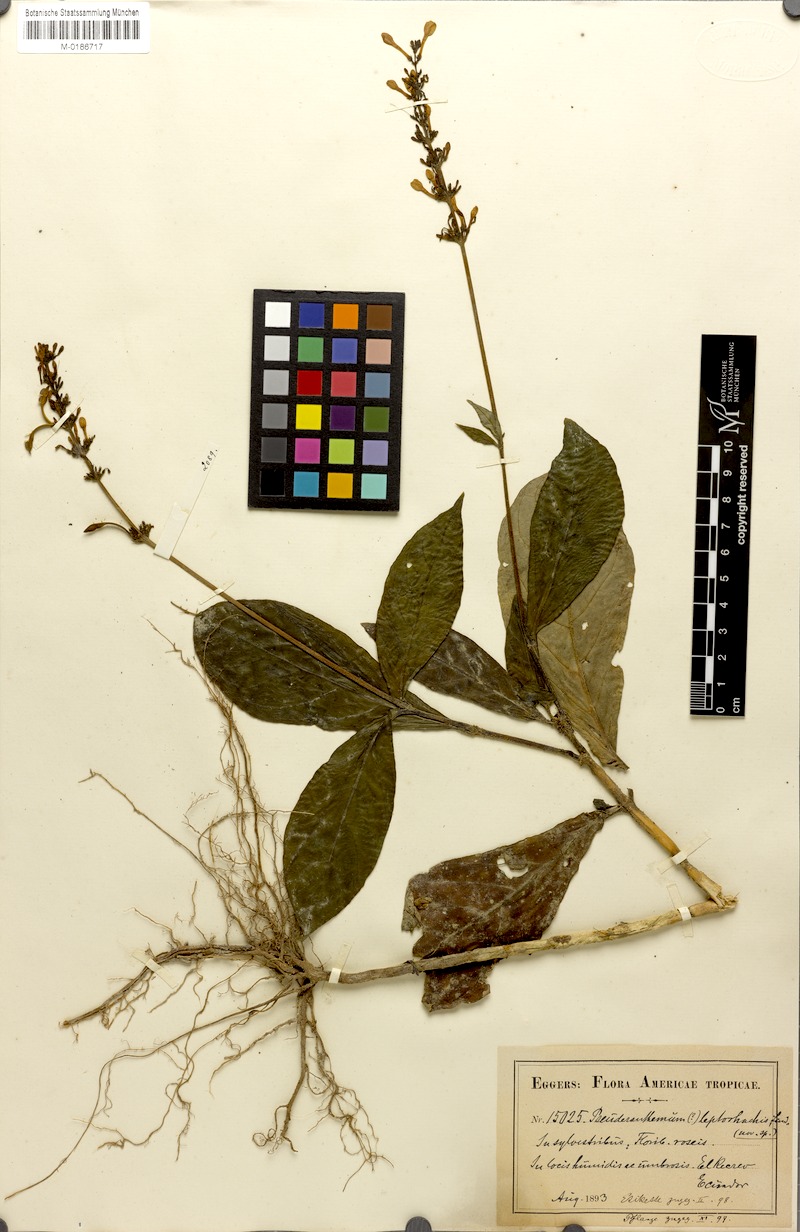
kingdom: Plantae
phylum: Tracheophyta
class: Magnoliopsida
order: Lamiales
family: Acanthaceae
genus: Pseuderanthemum
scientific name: Pseuderanthemum leptorhachis
